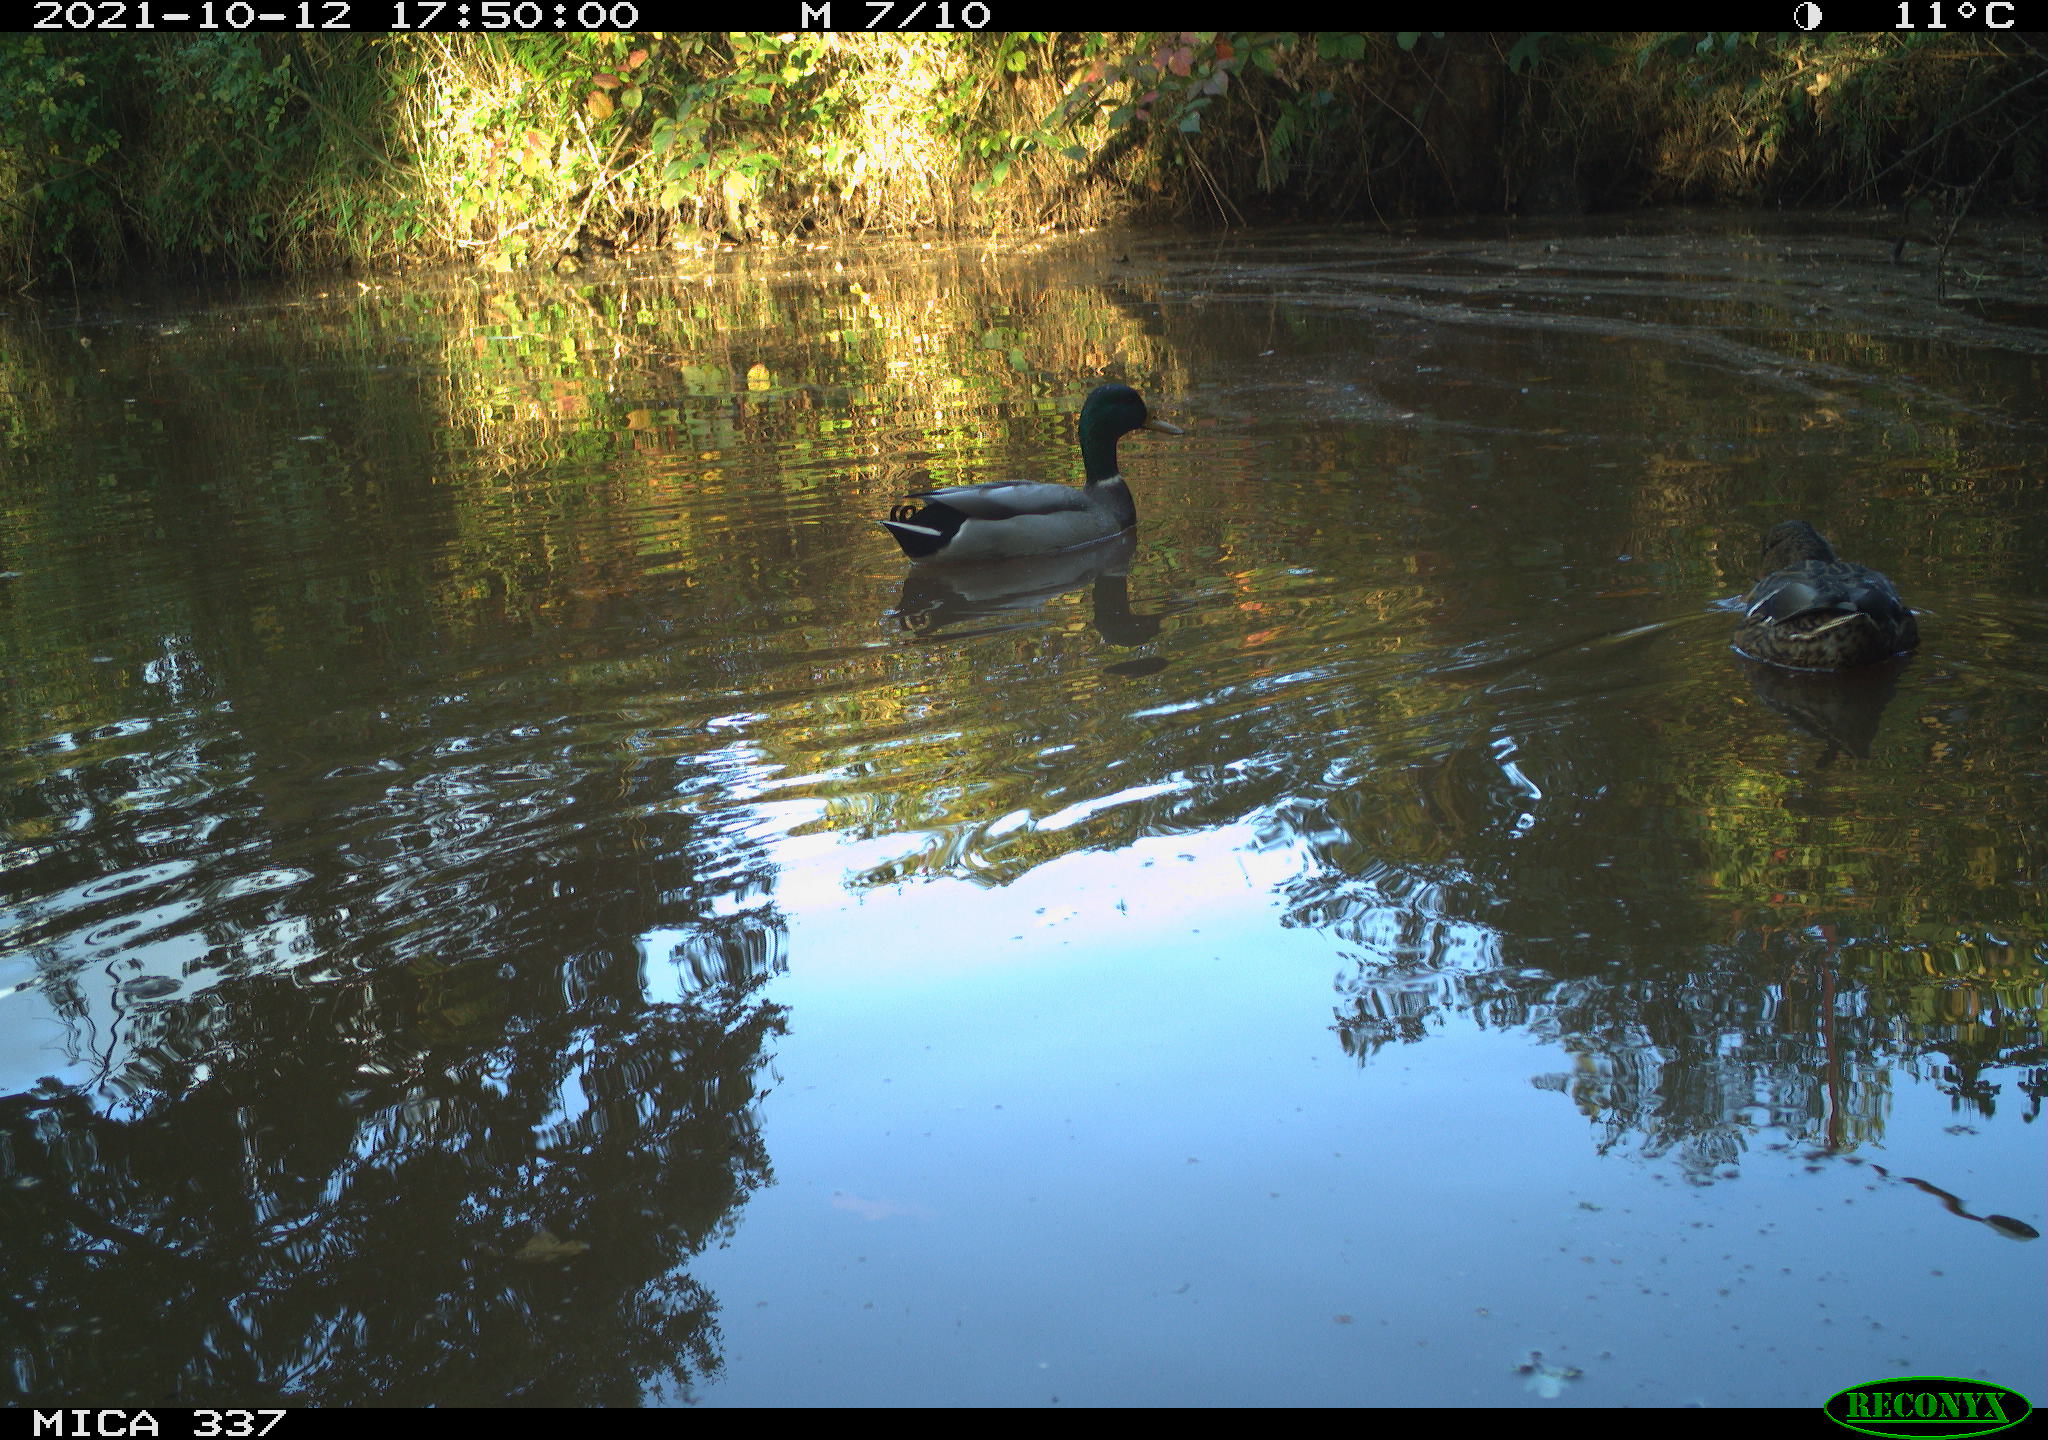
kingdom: Animalia
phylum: Chordata
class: Aves
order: Anseriformes
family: Anatidae
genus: Anas
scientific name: Anas platyrhynchos
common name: Mallard
